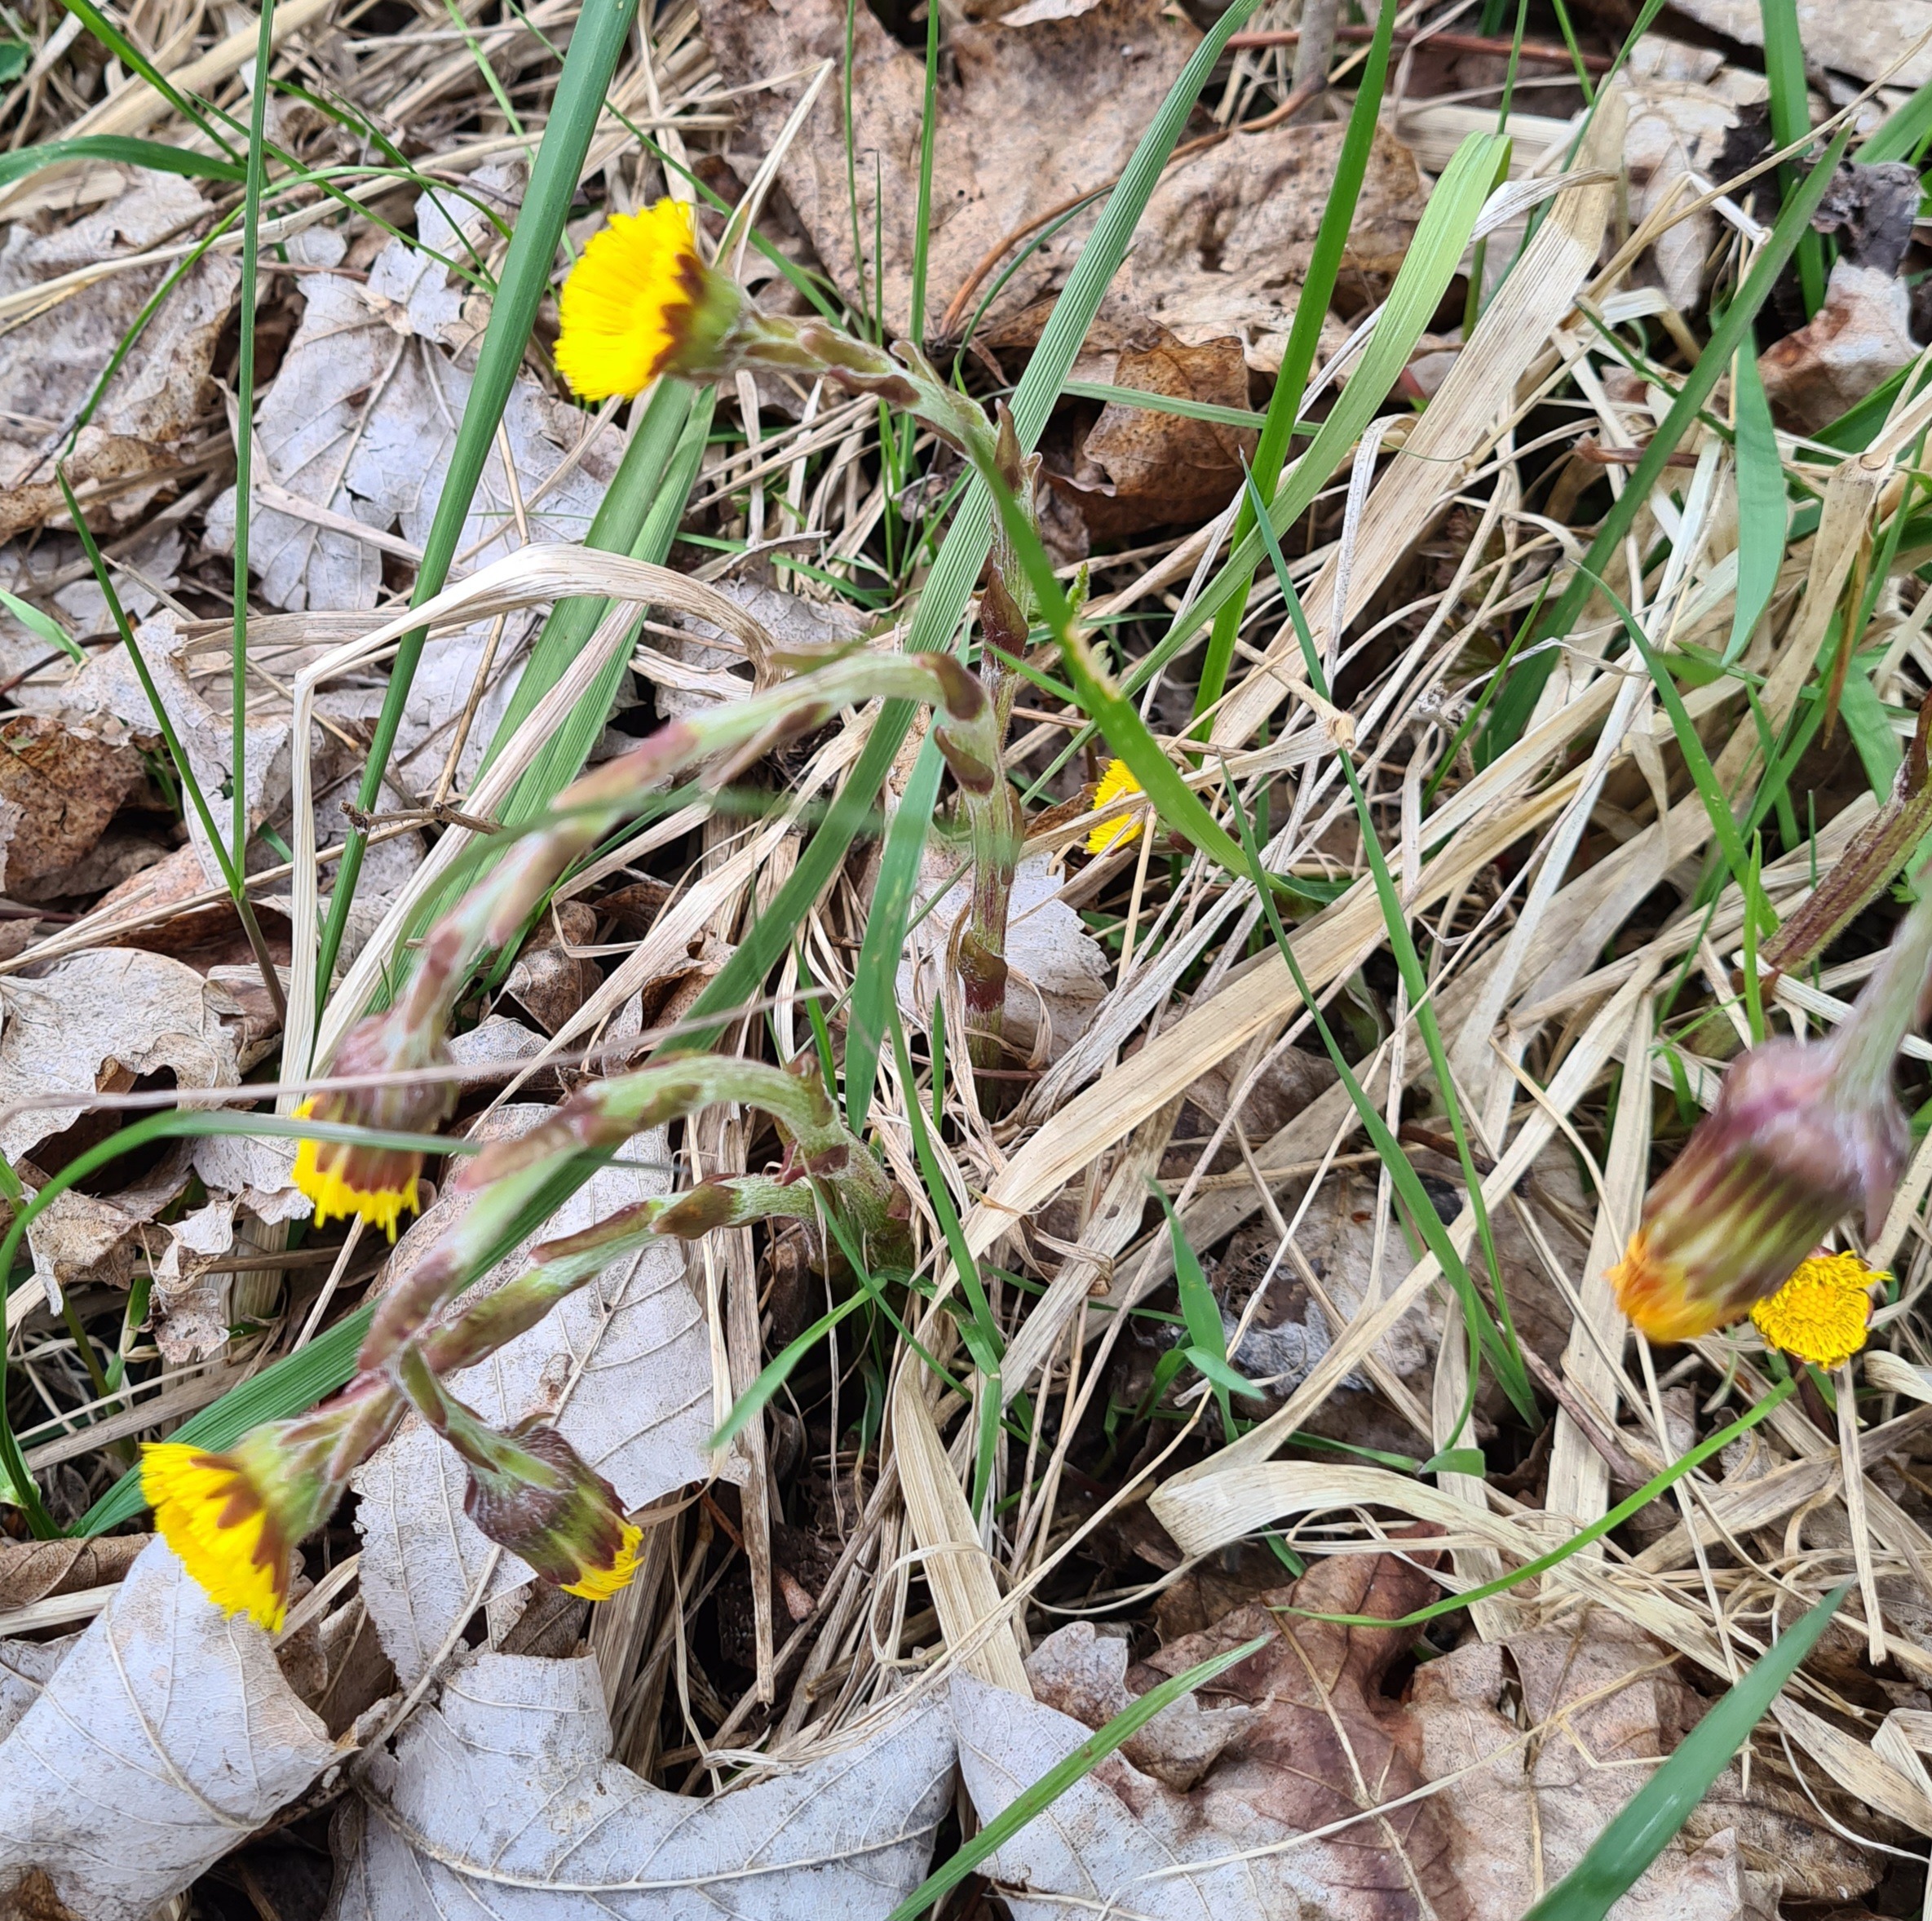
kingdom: Plantae
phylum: Tracheophyta
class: Magnoliopsida
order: Asterales
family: Asteraceae
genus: Tussilago
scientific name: Tussilago farfara
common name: Følfod
